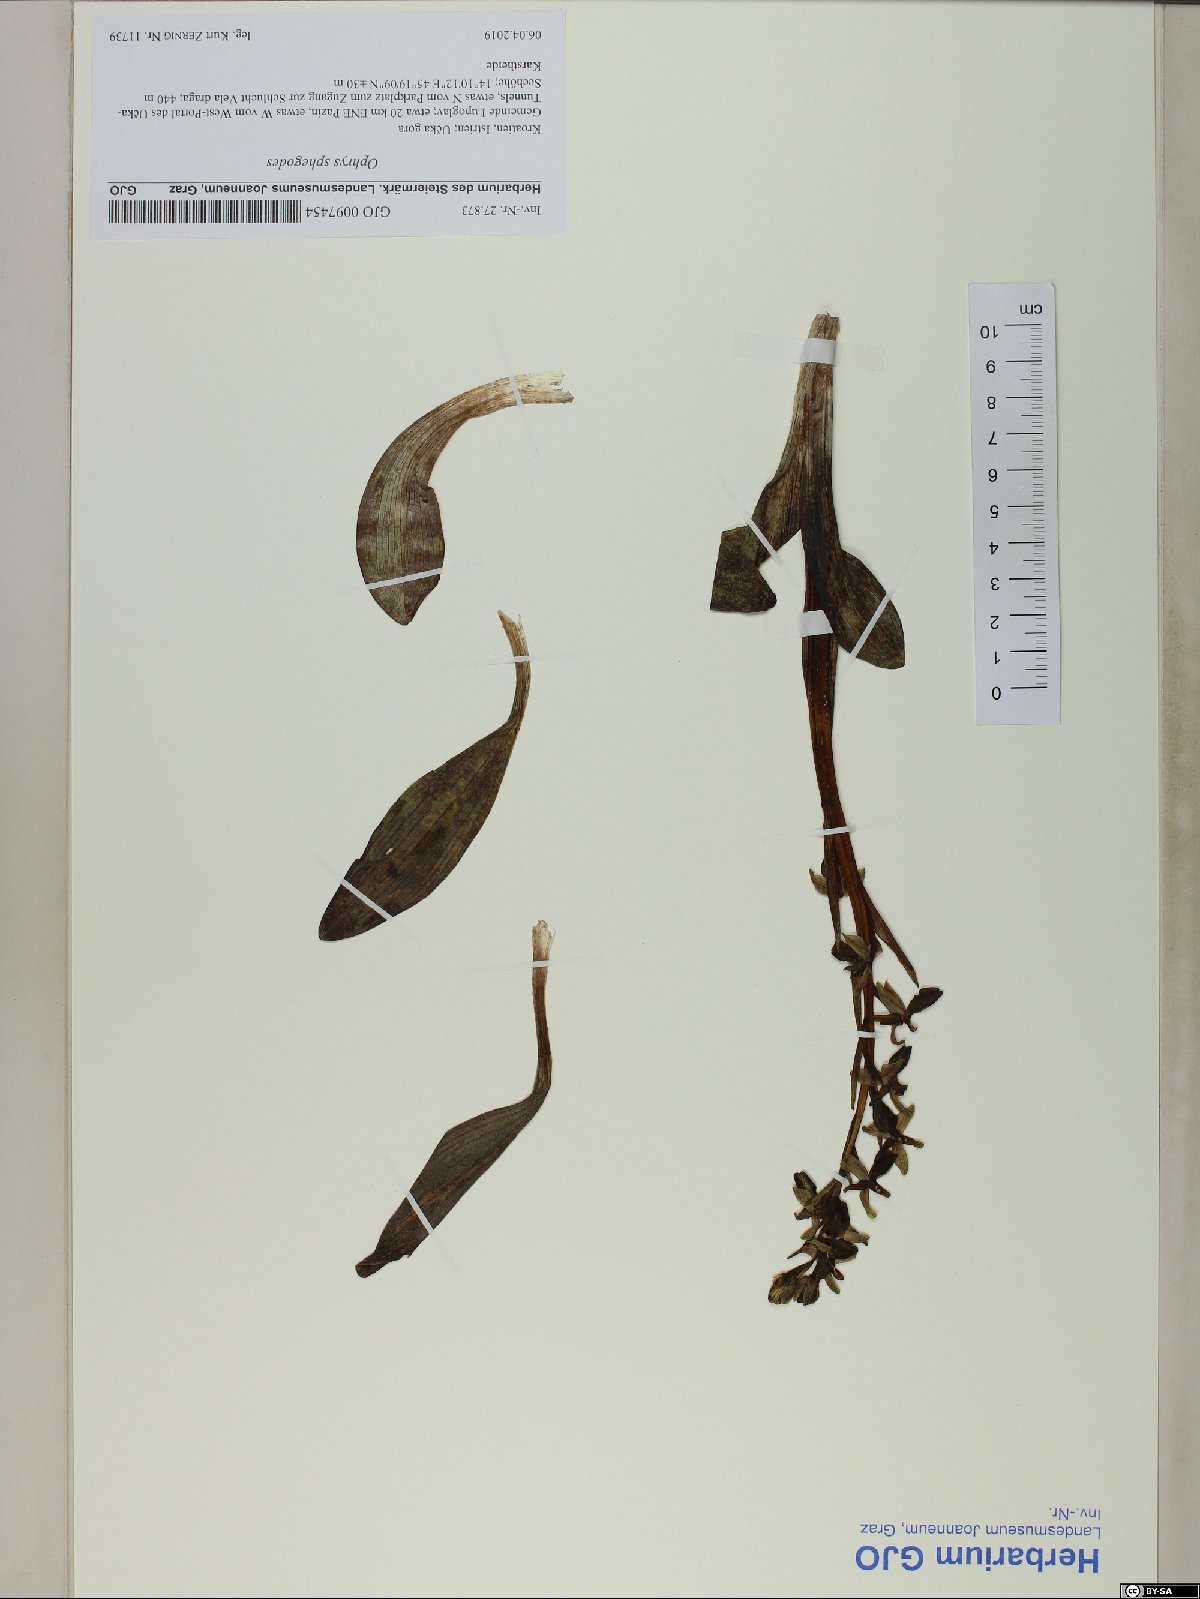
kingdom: Plantae
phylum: Tracheophyta
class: Liliopsida
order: Asparagales
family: Orchidaceae
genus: Ophrys
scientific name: Ophrys sphegodes
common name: Early spider-orchid
